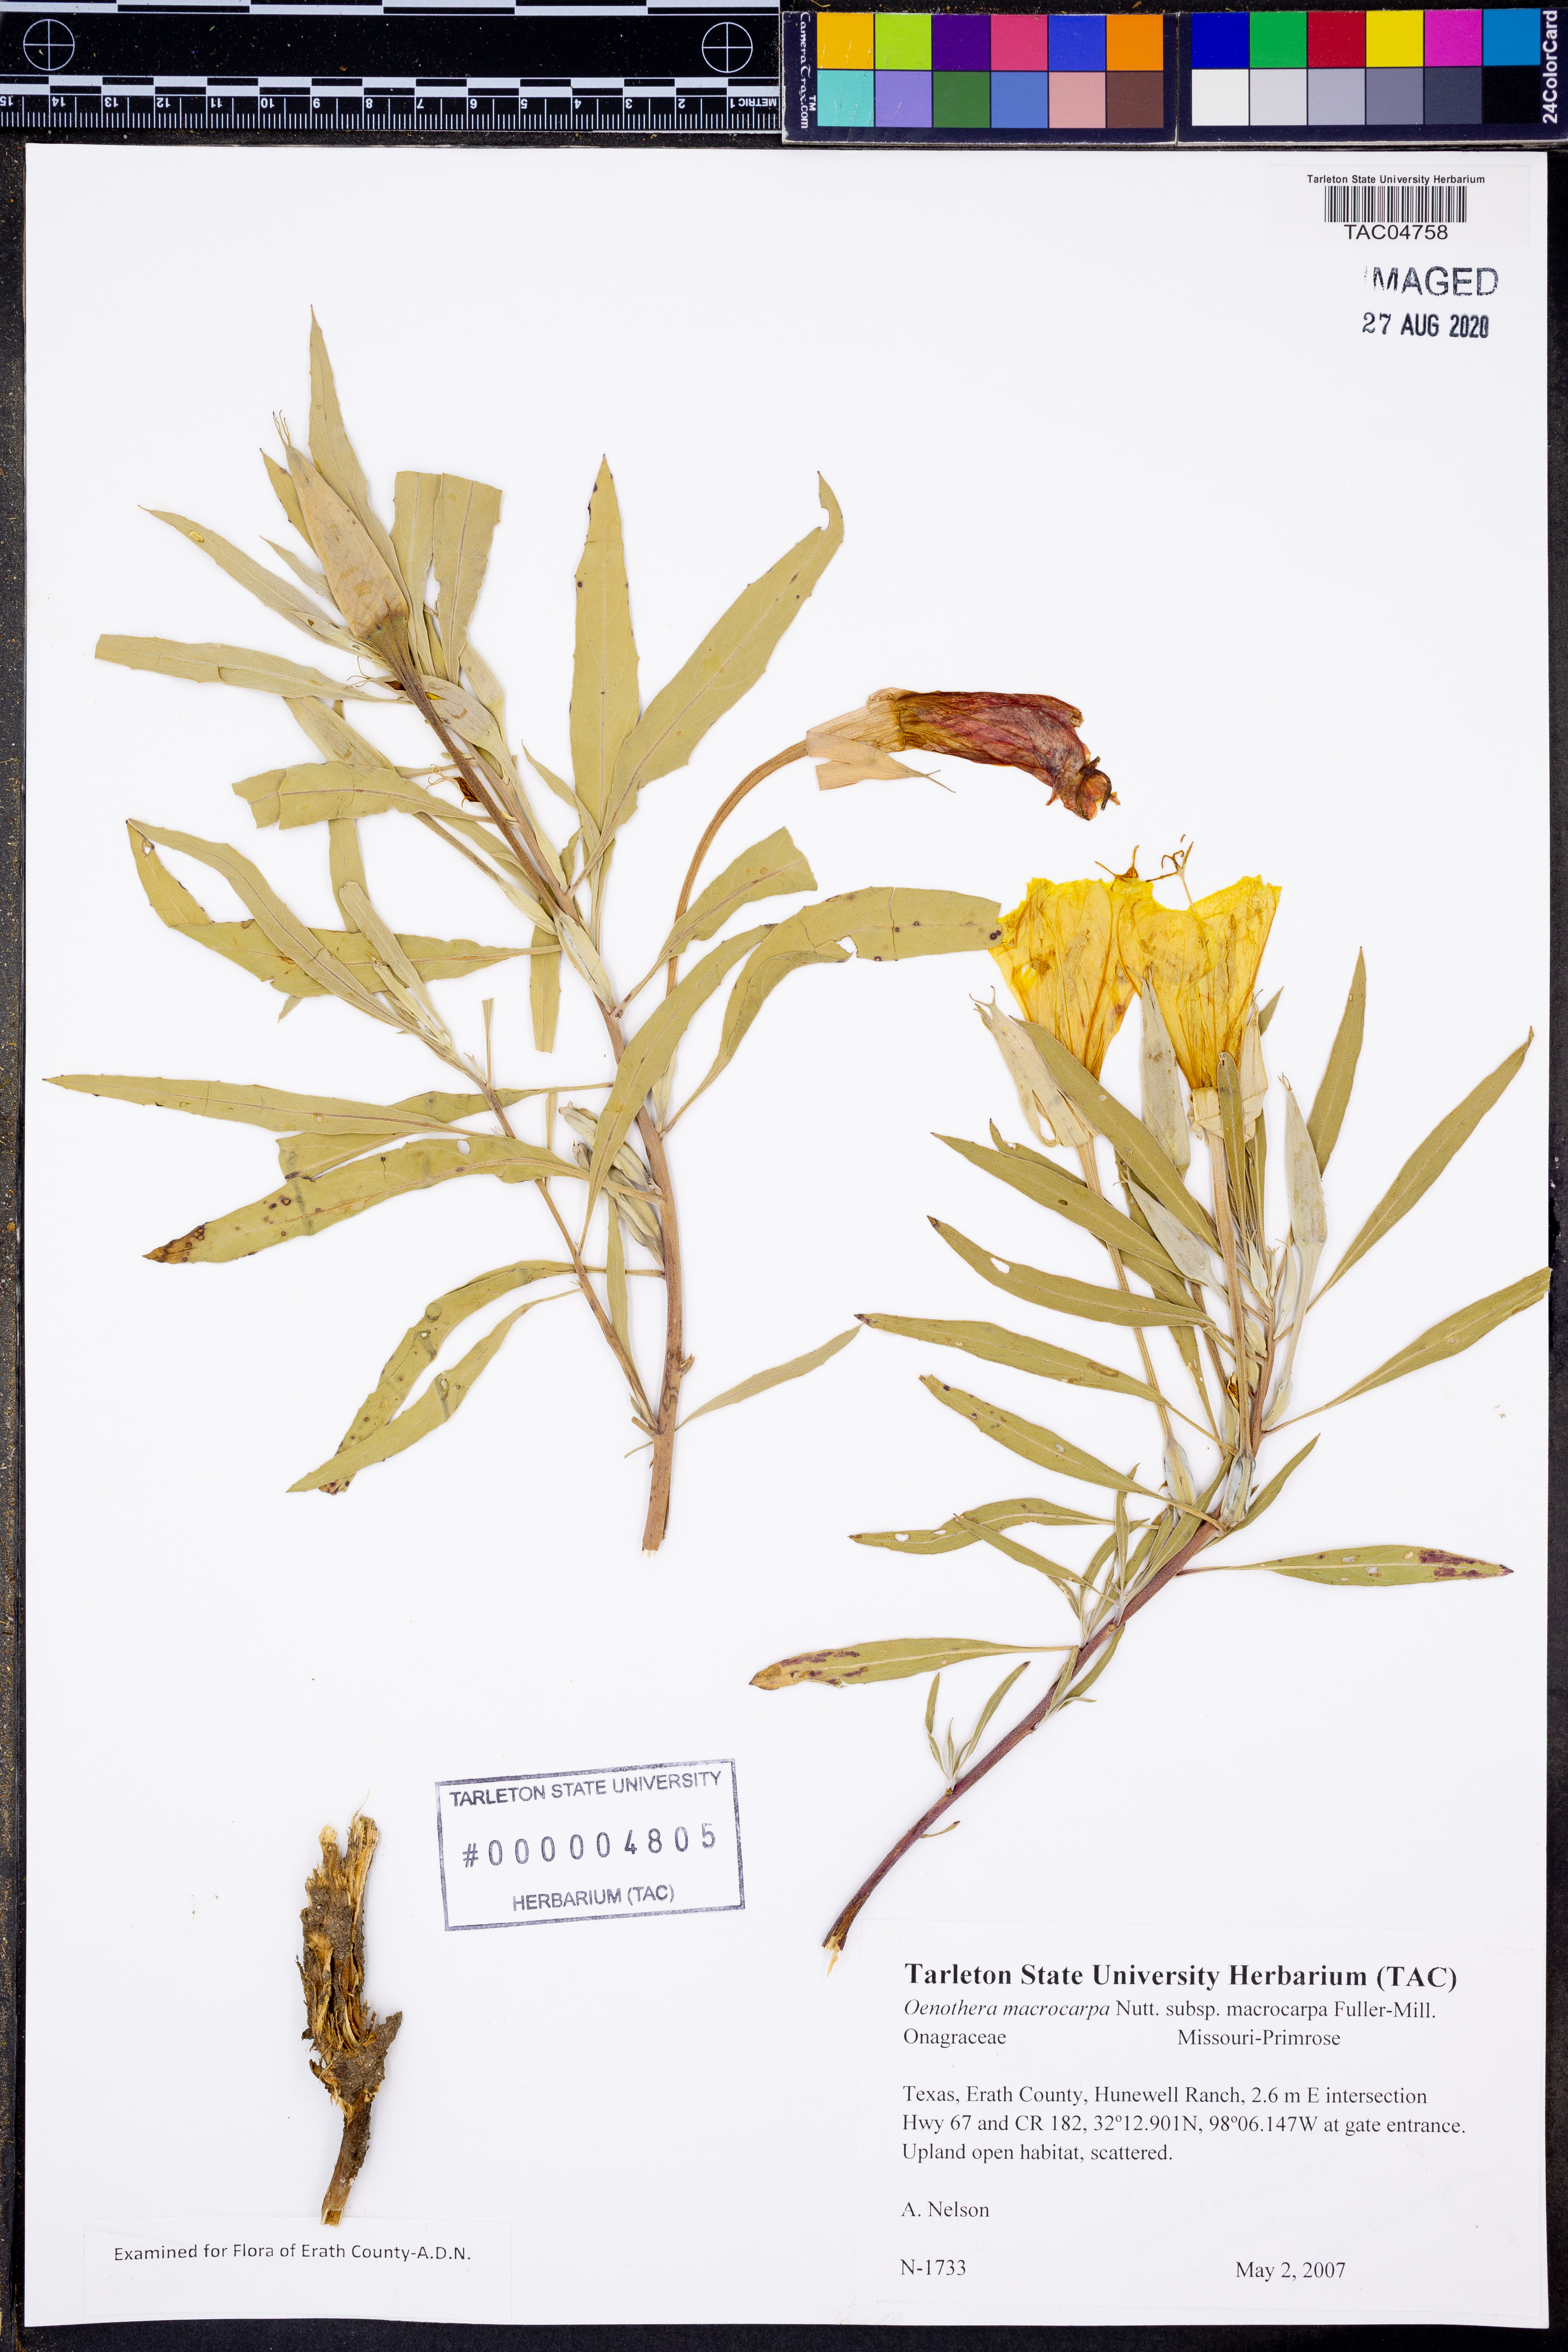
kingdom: Plantae
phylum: Tracheophyta
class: Magnoliopsida
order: Myrtales
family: Onagraceae
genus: Oenothera
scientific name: Oenothera macrocarpa
